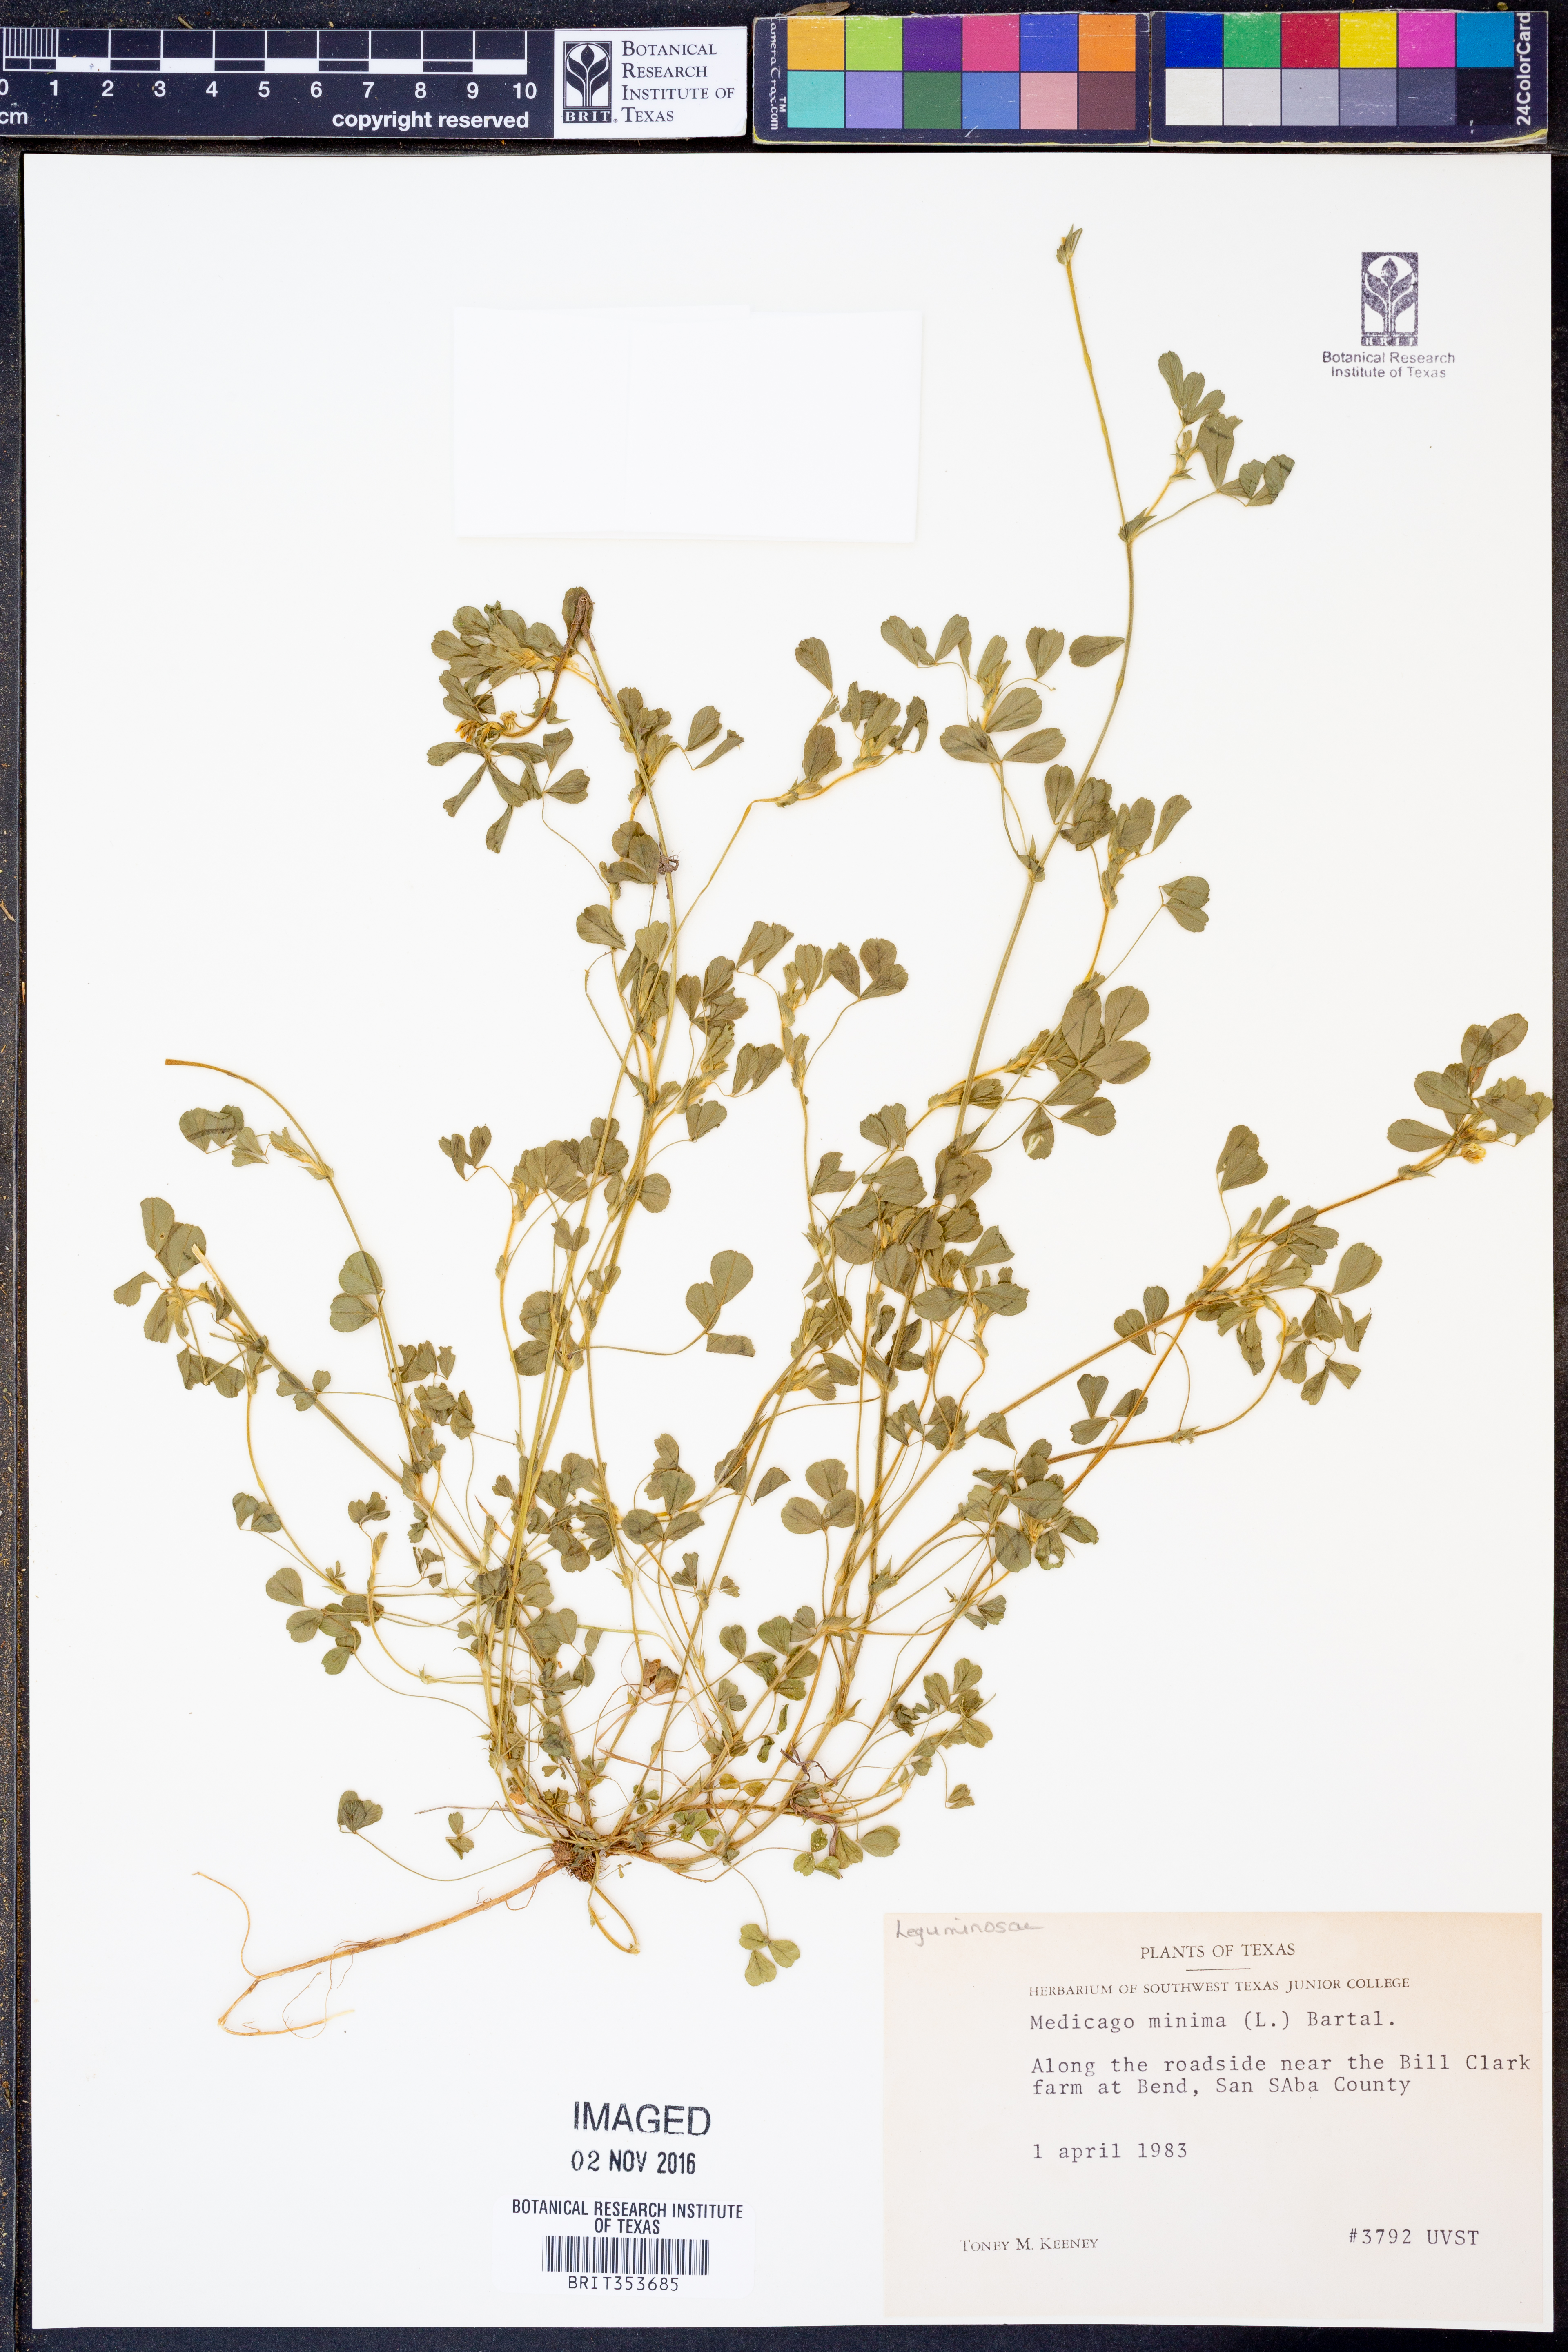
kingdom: Plantae
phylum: Tracheophyta
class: Magnoliopsida
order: Fabales
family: Fabaceae
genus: Medicago
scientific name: Medicago minima
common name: Little bur-clover
